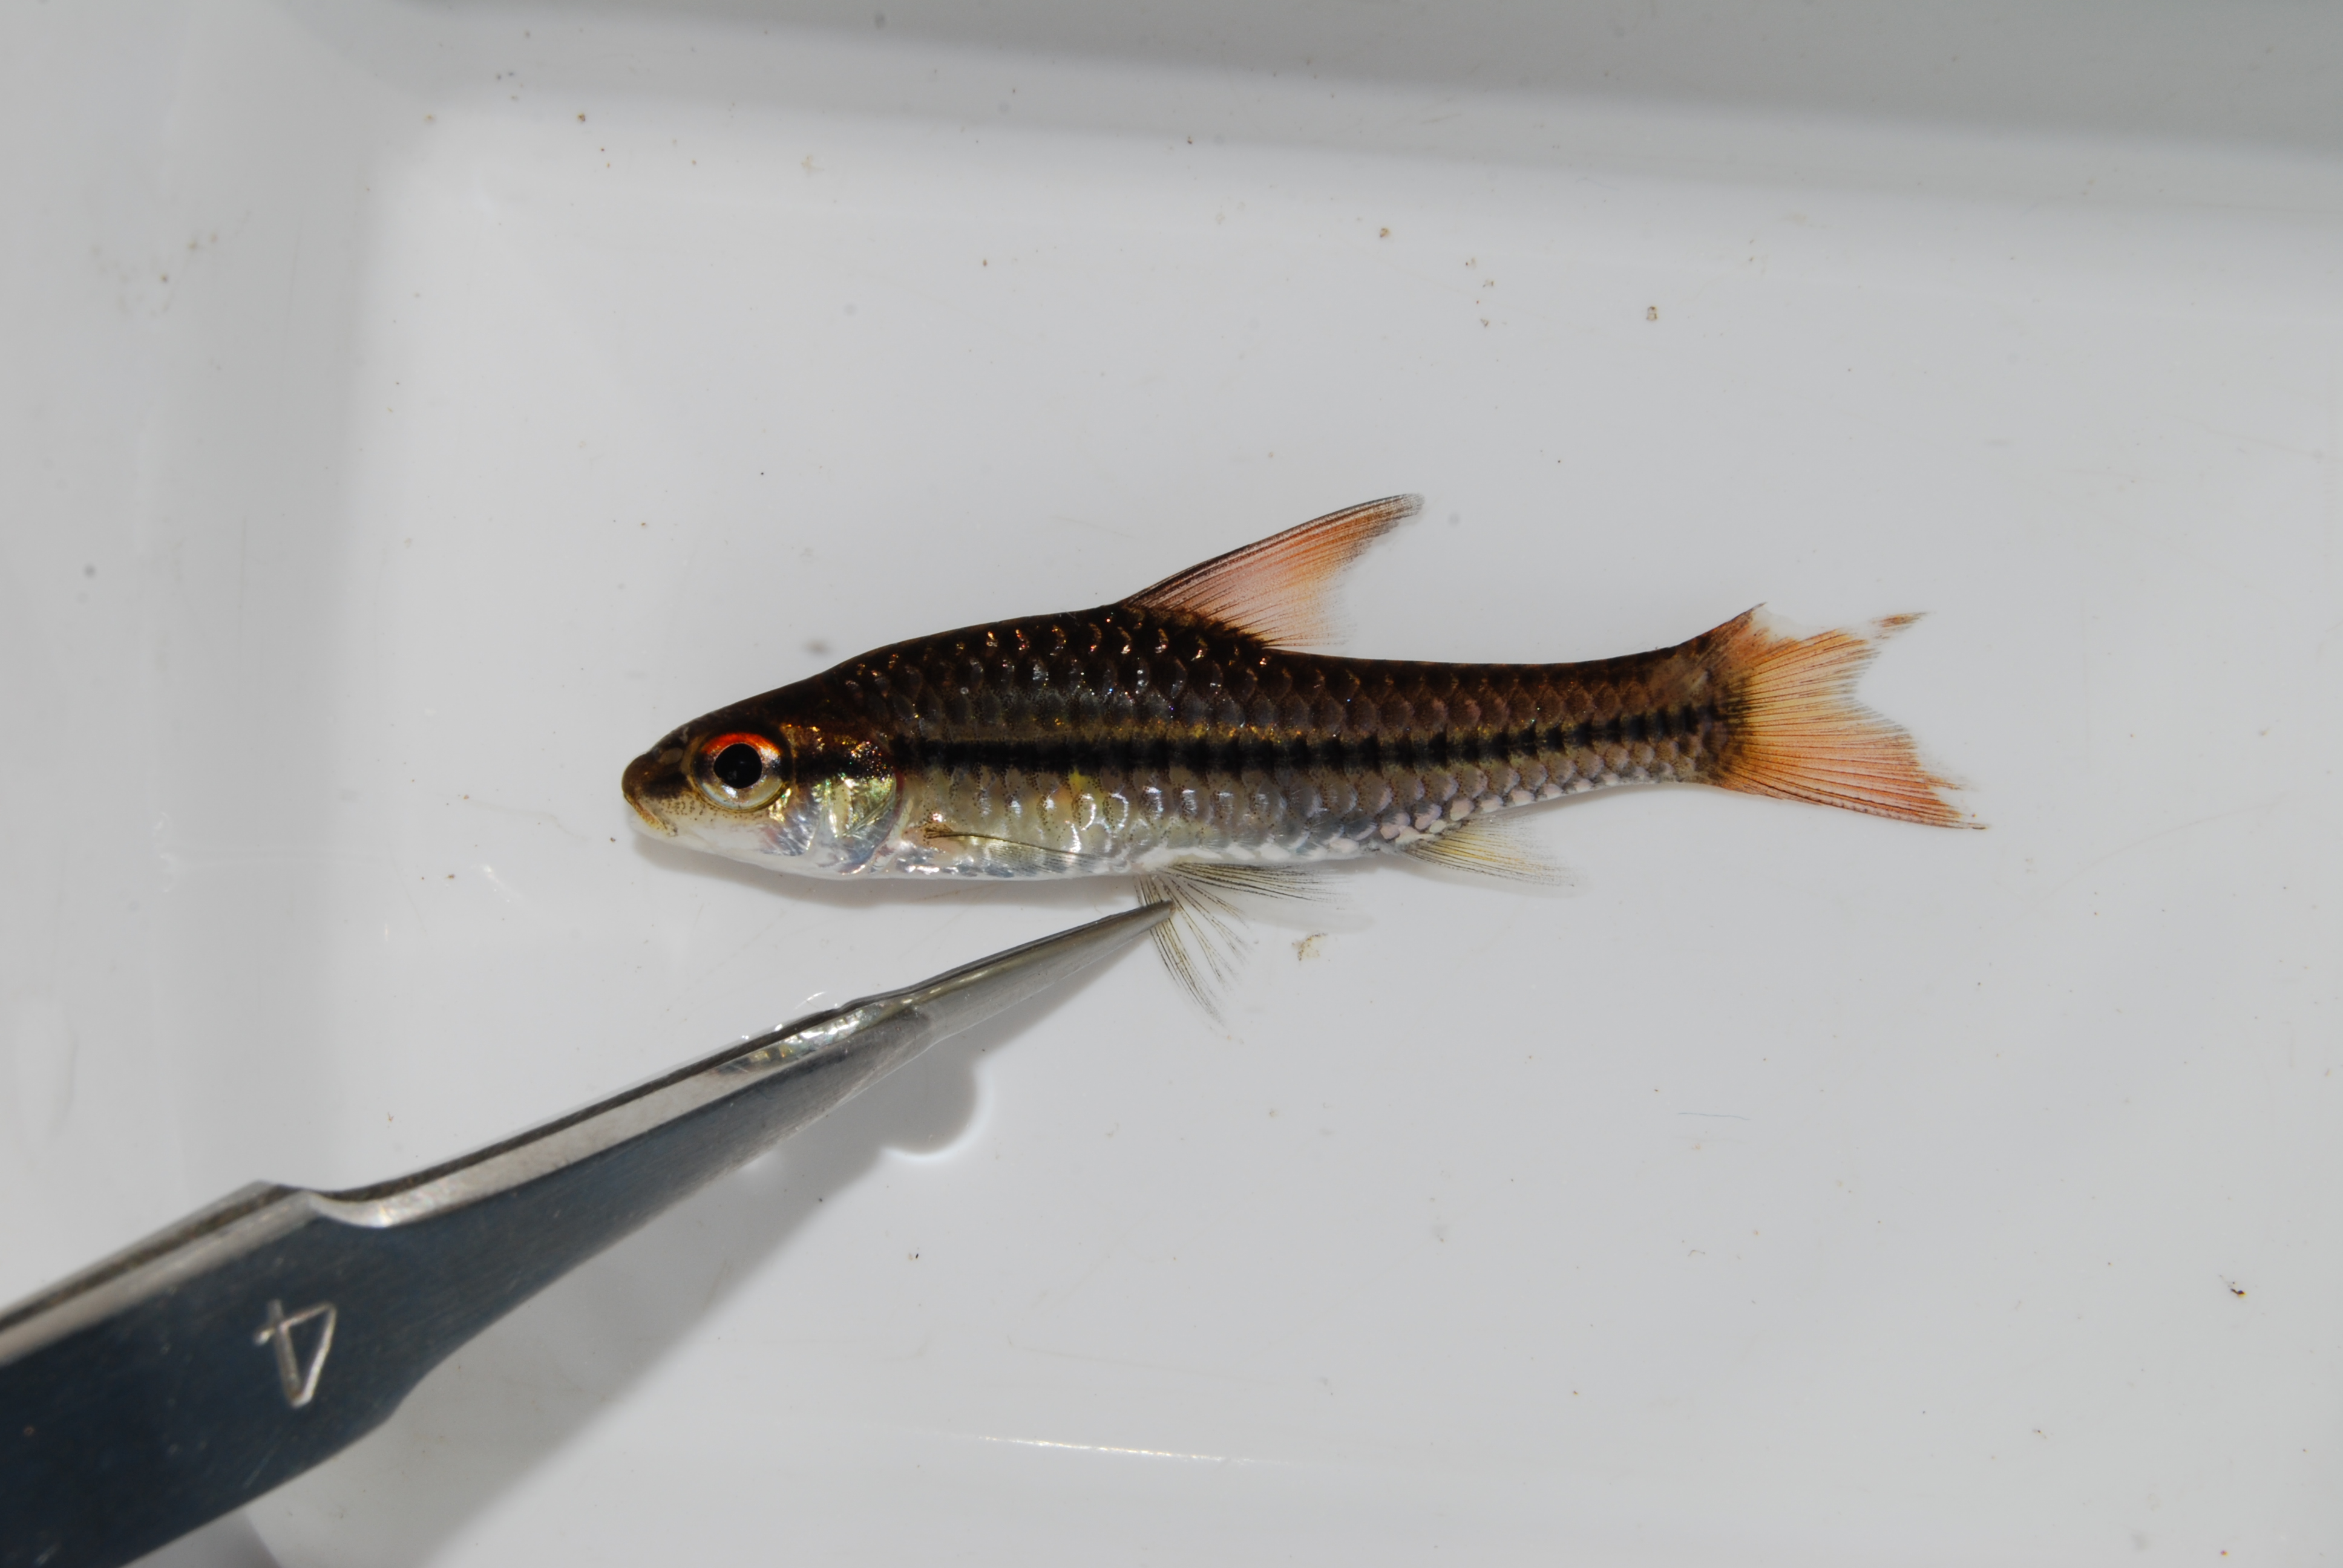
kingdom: Animalia
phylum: Chordata
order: Cypriniformes
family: Cyprinidae
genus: Enteromius
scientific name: Enteromius radiatus
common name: Beira barb
